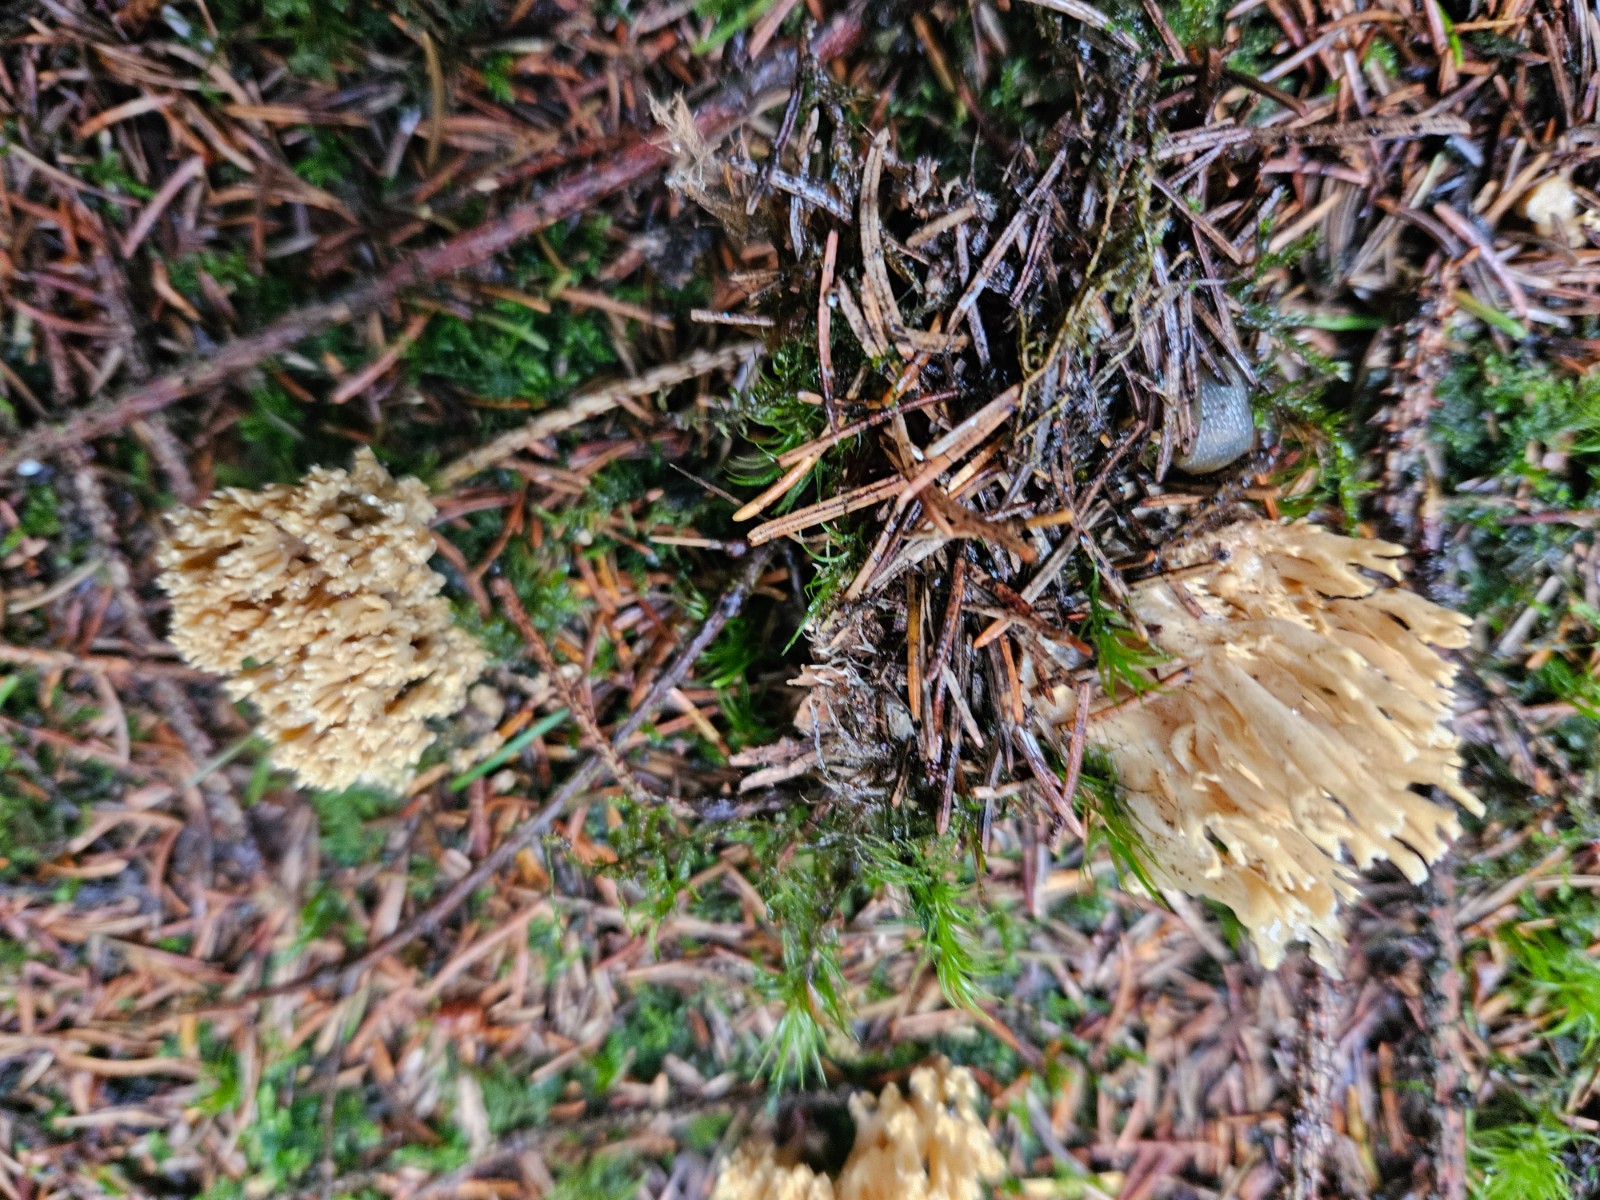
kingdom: Fungi
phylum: Basidiomycota
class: Agaricomycetes
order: Gomphales
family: Gomphaceae
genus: Phaeoclavulina
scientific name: Phaeoclavulina eumorpha
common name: gran-koralsvamp
